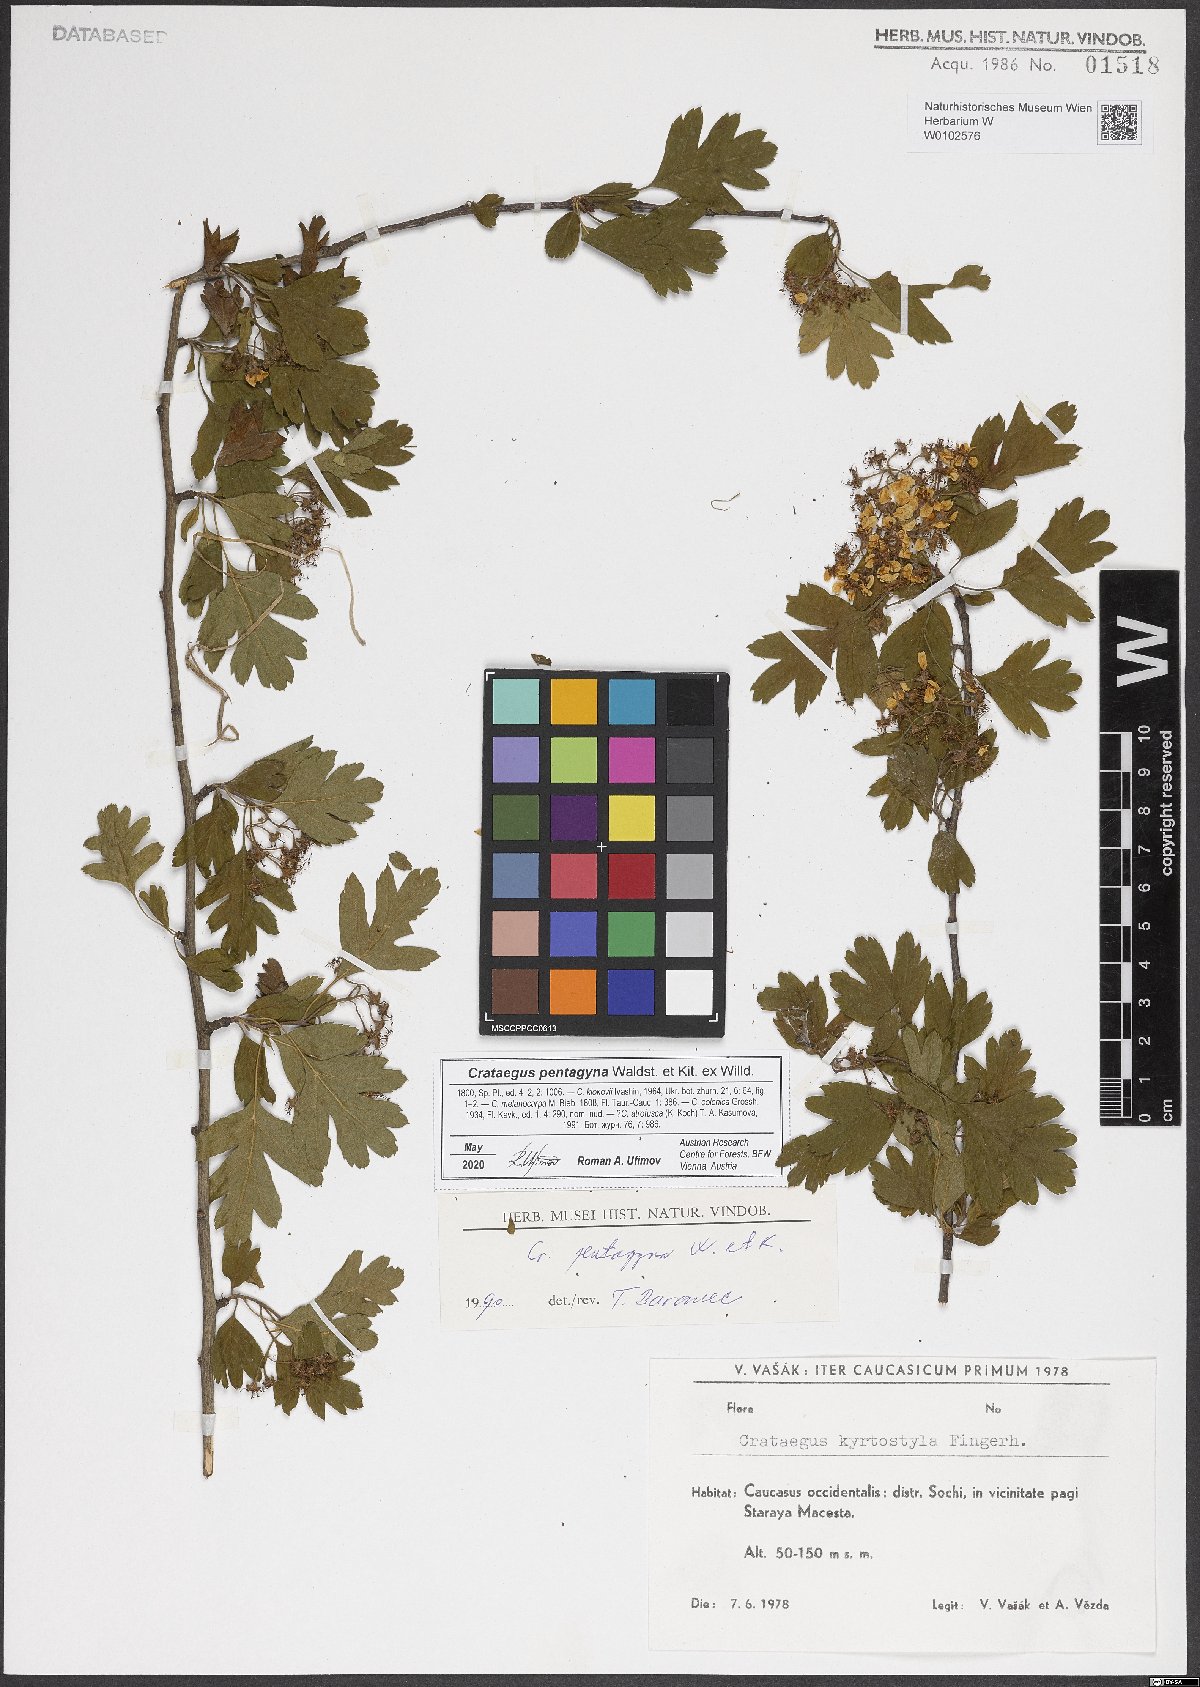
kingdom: Plantae
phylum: Tracheophyta
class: Magnoliopsida
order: Rosales
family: Rosaceae
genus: Crataegus
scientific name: Crataegus pentagyna
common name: Small-flowered black hawthorn
